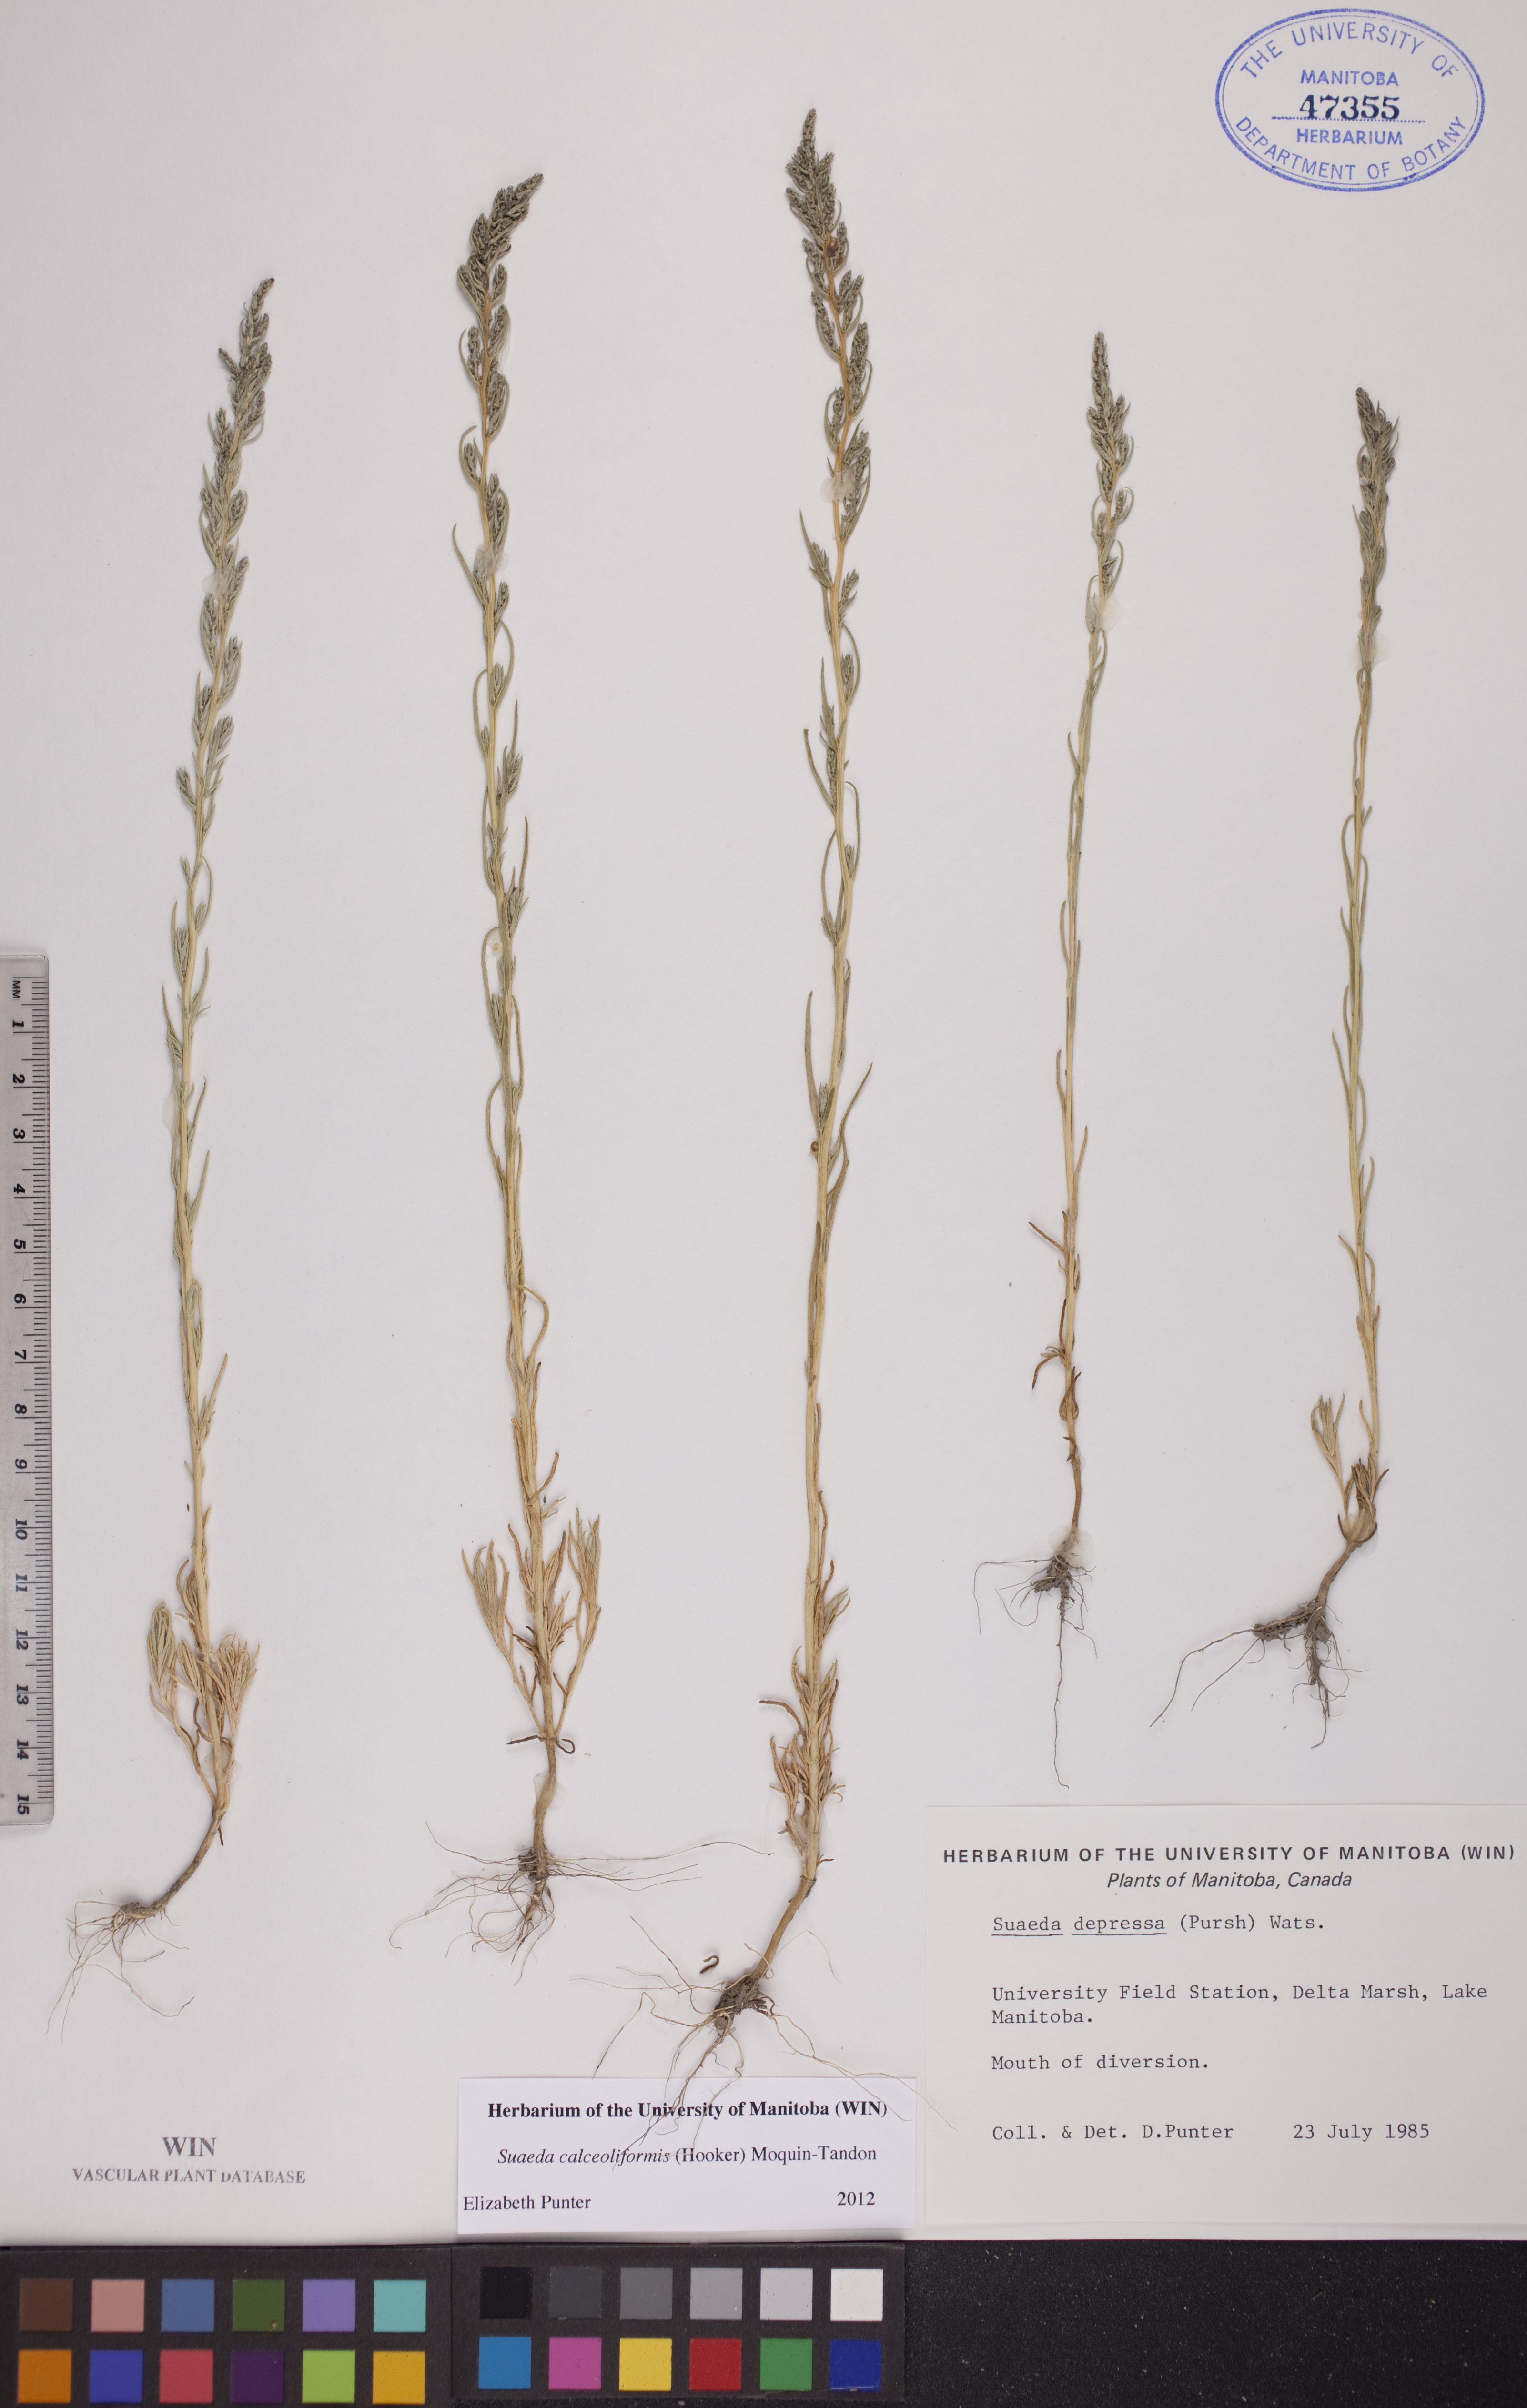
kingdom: Plantae
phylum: Tracheophyta
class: Magnoliopsida
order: Caryophyllales
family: Amaranthaceae
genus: Suaeda
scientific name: Suaeda calceoliformis
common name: Pursh's seepweed
